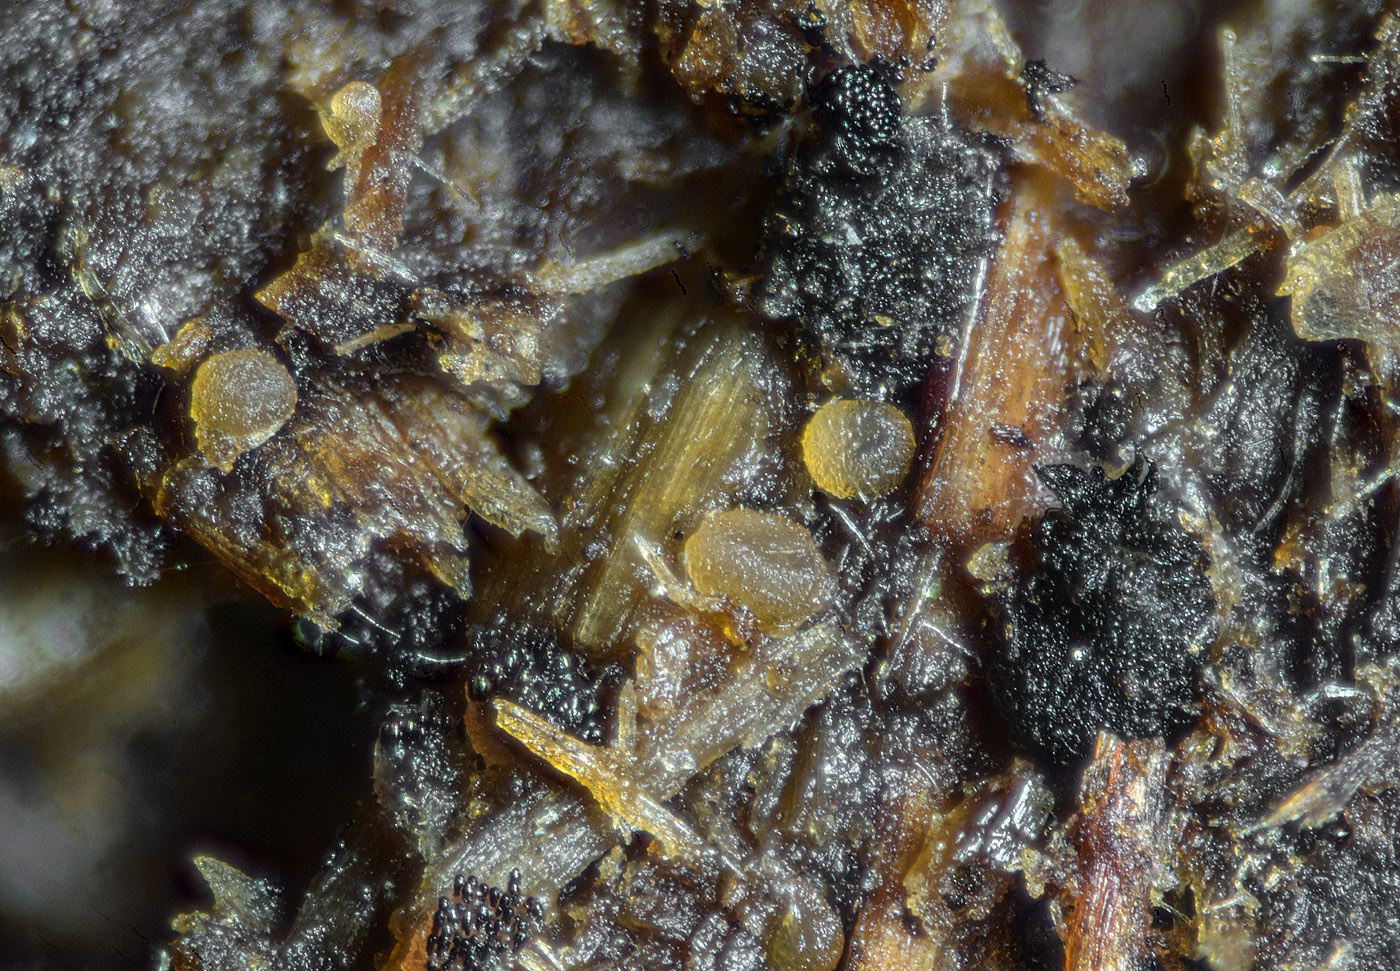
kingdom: Fungi
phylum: Ascomycota
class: Pezizomycetes
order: Pezizales
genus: Coprotus
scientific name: Coprotus granuliformis
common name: ballonsækket småbæger
